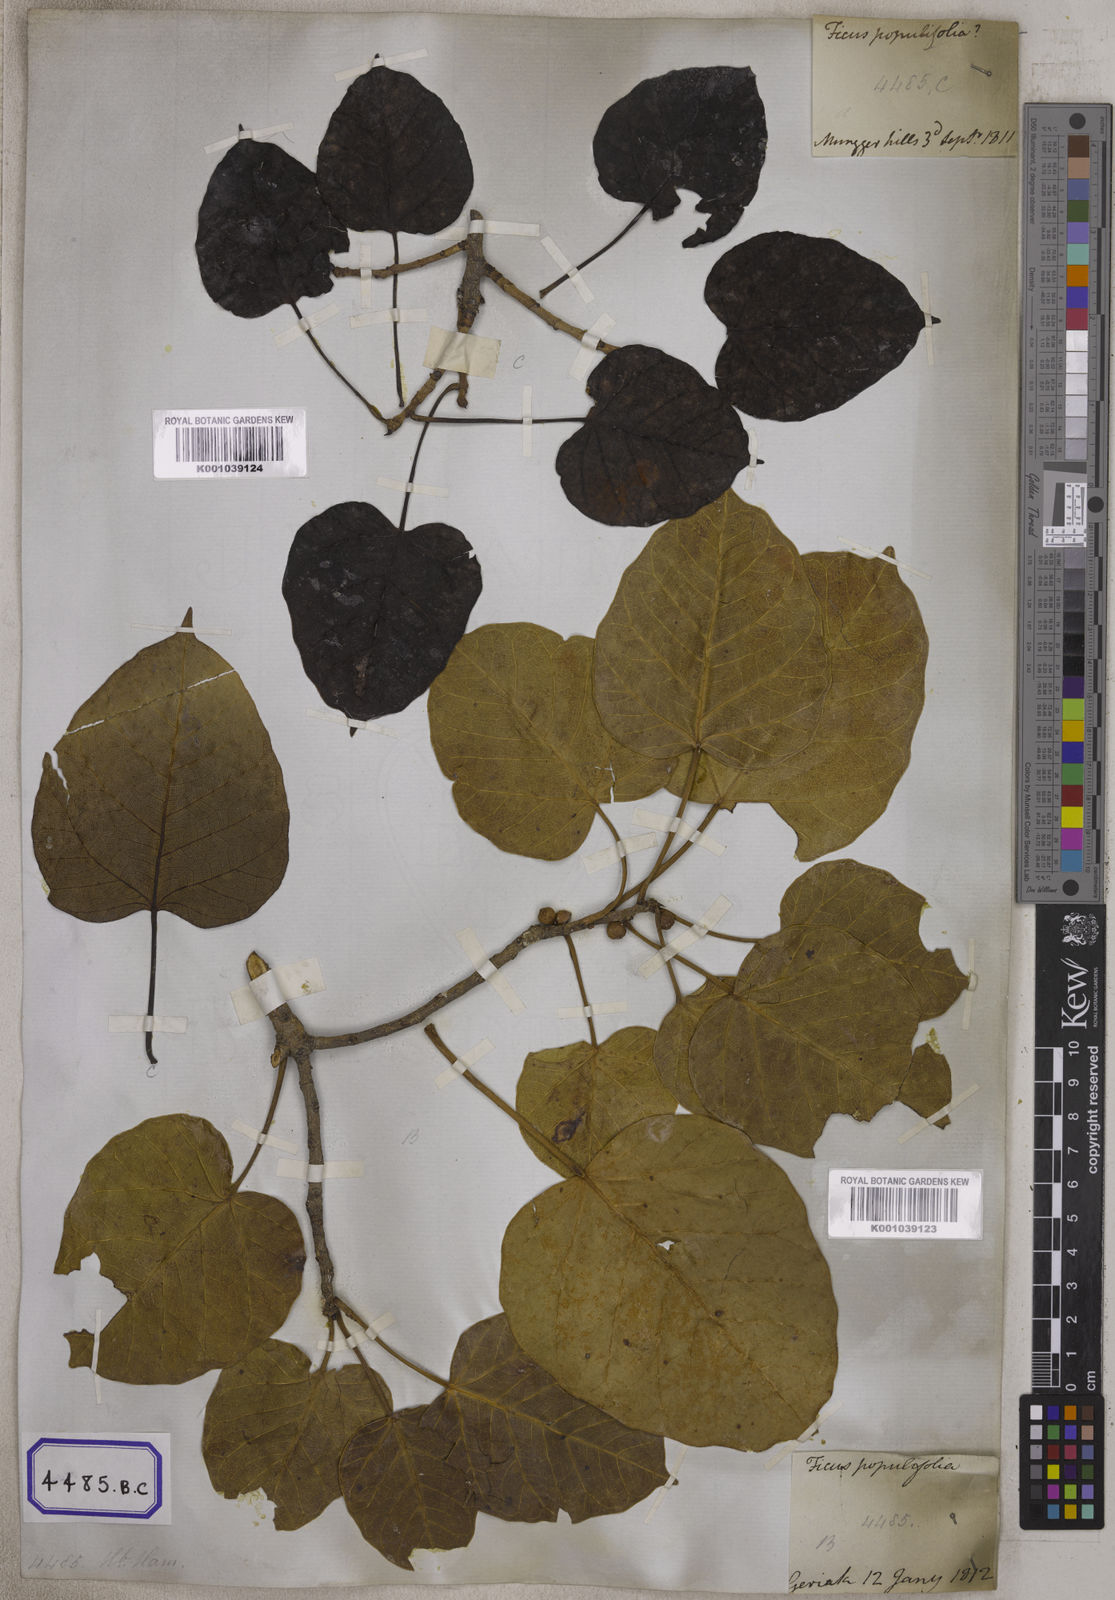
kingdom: Plantae
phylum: Tracheophyta
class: Magnoliopsida
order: Rosales
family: Moraceae
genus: Ficus
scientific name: Ficus populifolia
